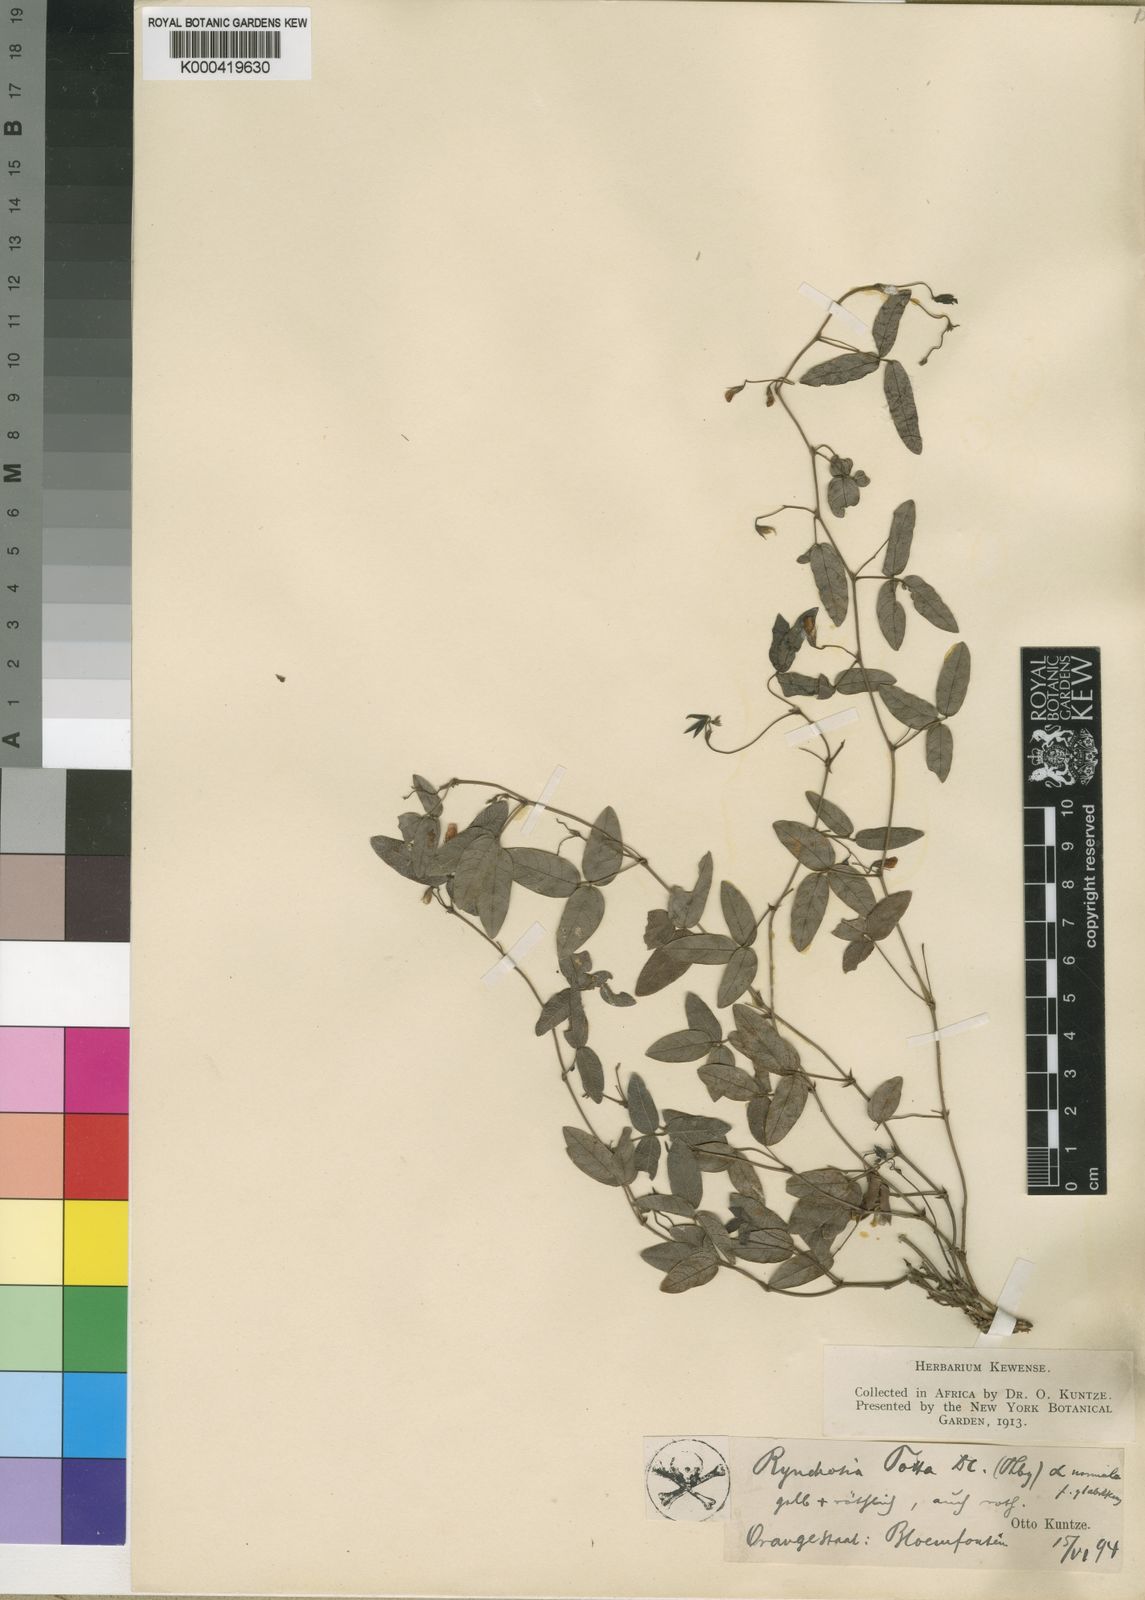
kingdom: Plantae
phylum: Tracheophyta
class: Magnoliopsida
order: Fabales
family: Fabaceae
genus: Rhynchosia
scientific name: Rhynchosia totta
